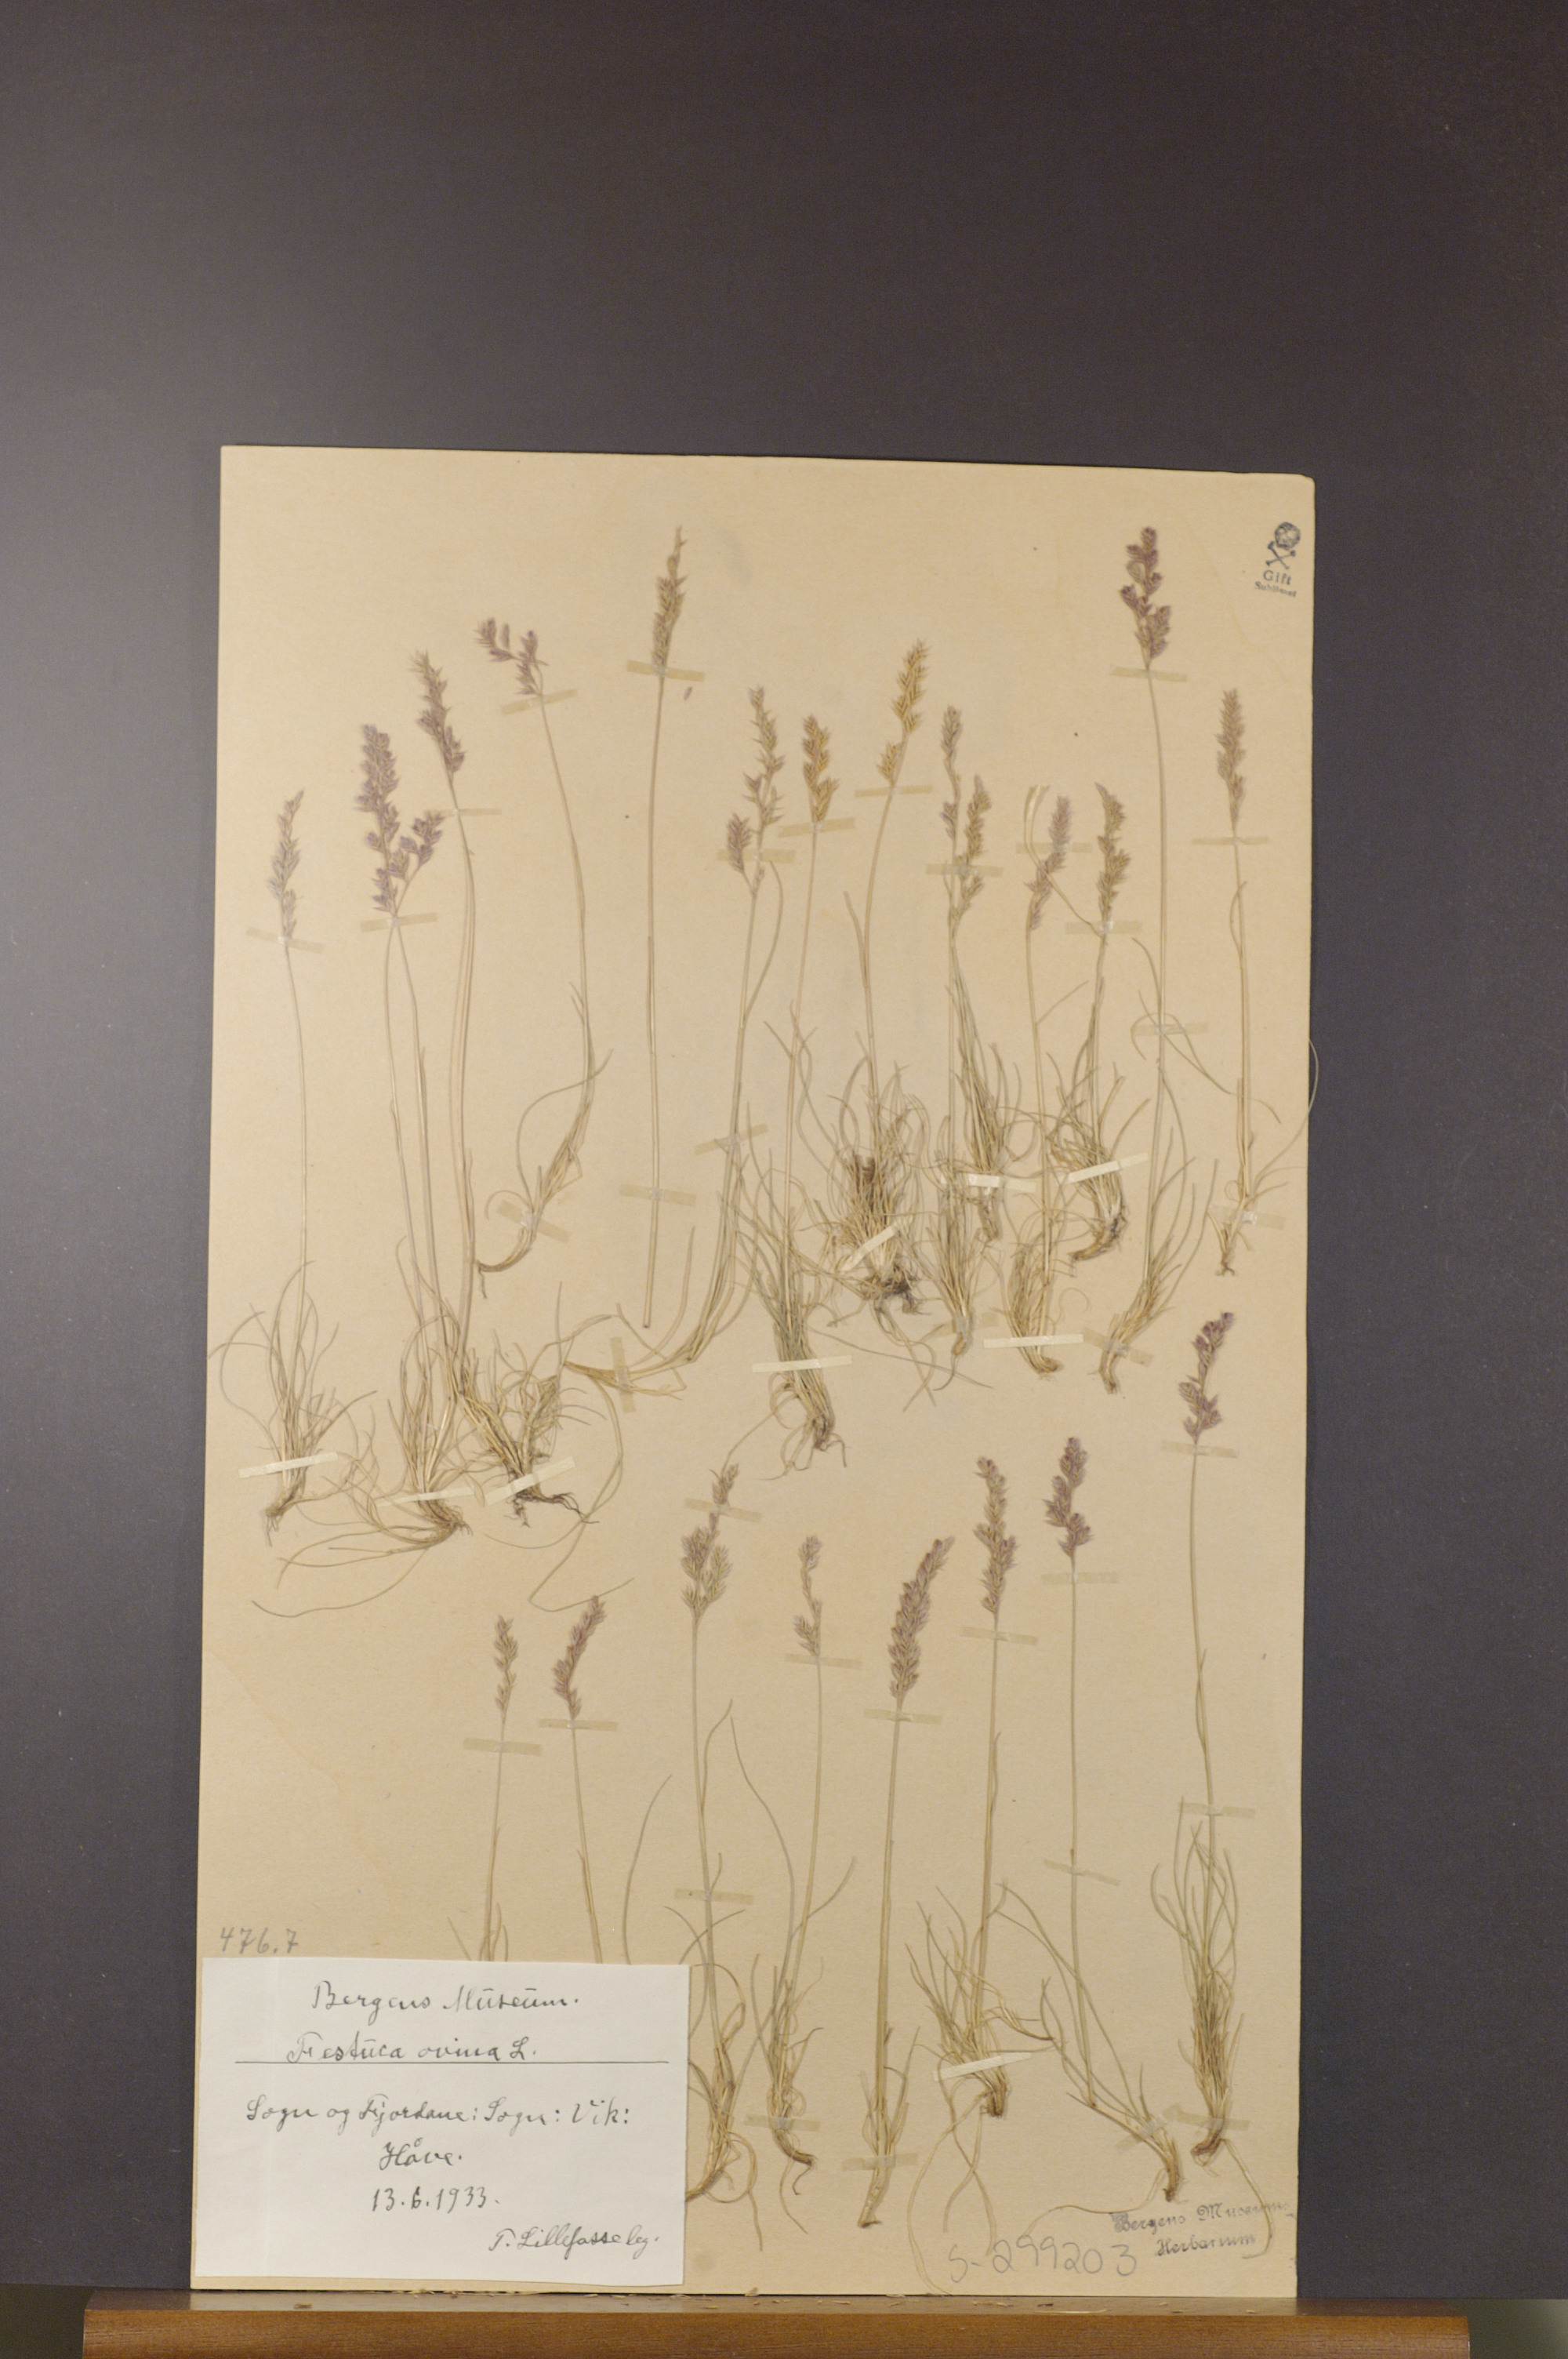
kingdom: Plantae
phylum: Tracheophyta
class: Liliopsida
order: Poales
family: Poaceae
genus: Festuca
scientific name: Festuca ovina
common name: Sheep fescue
